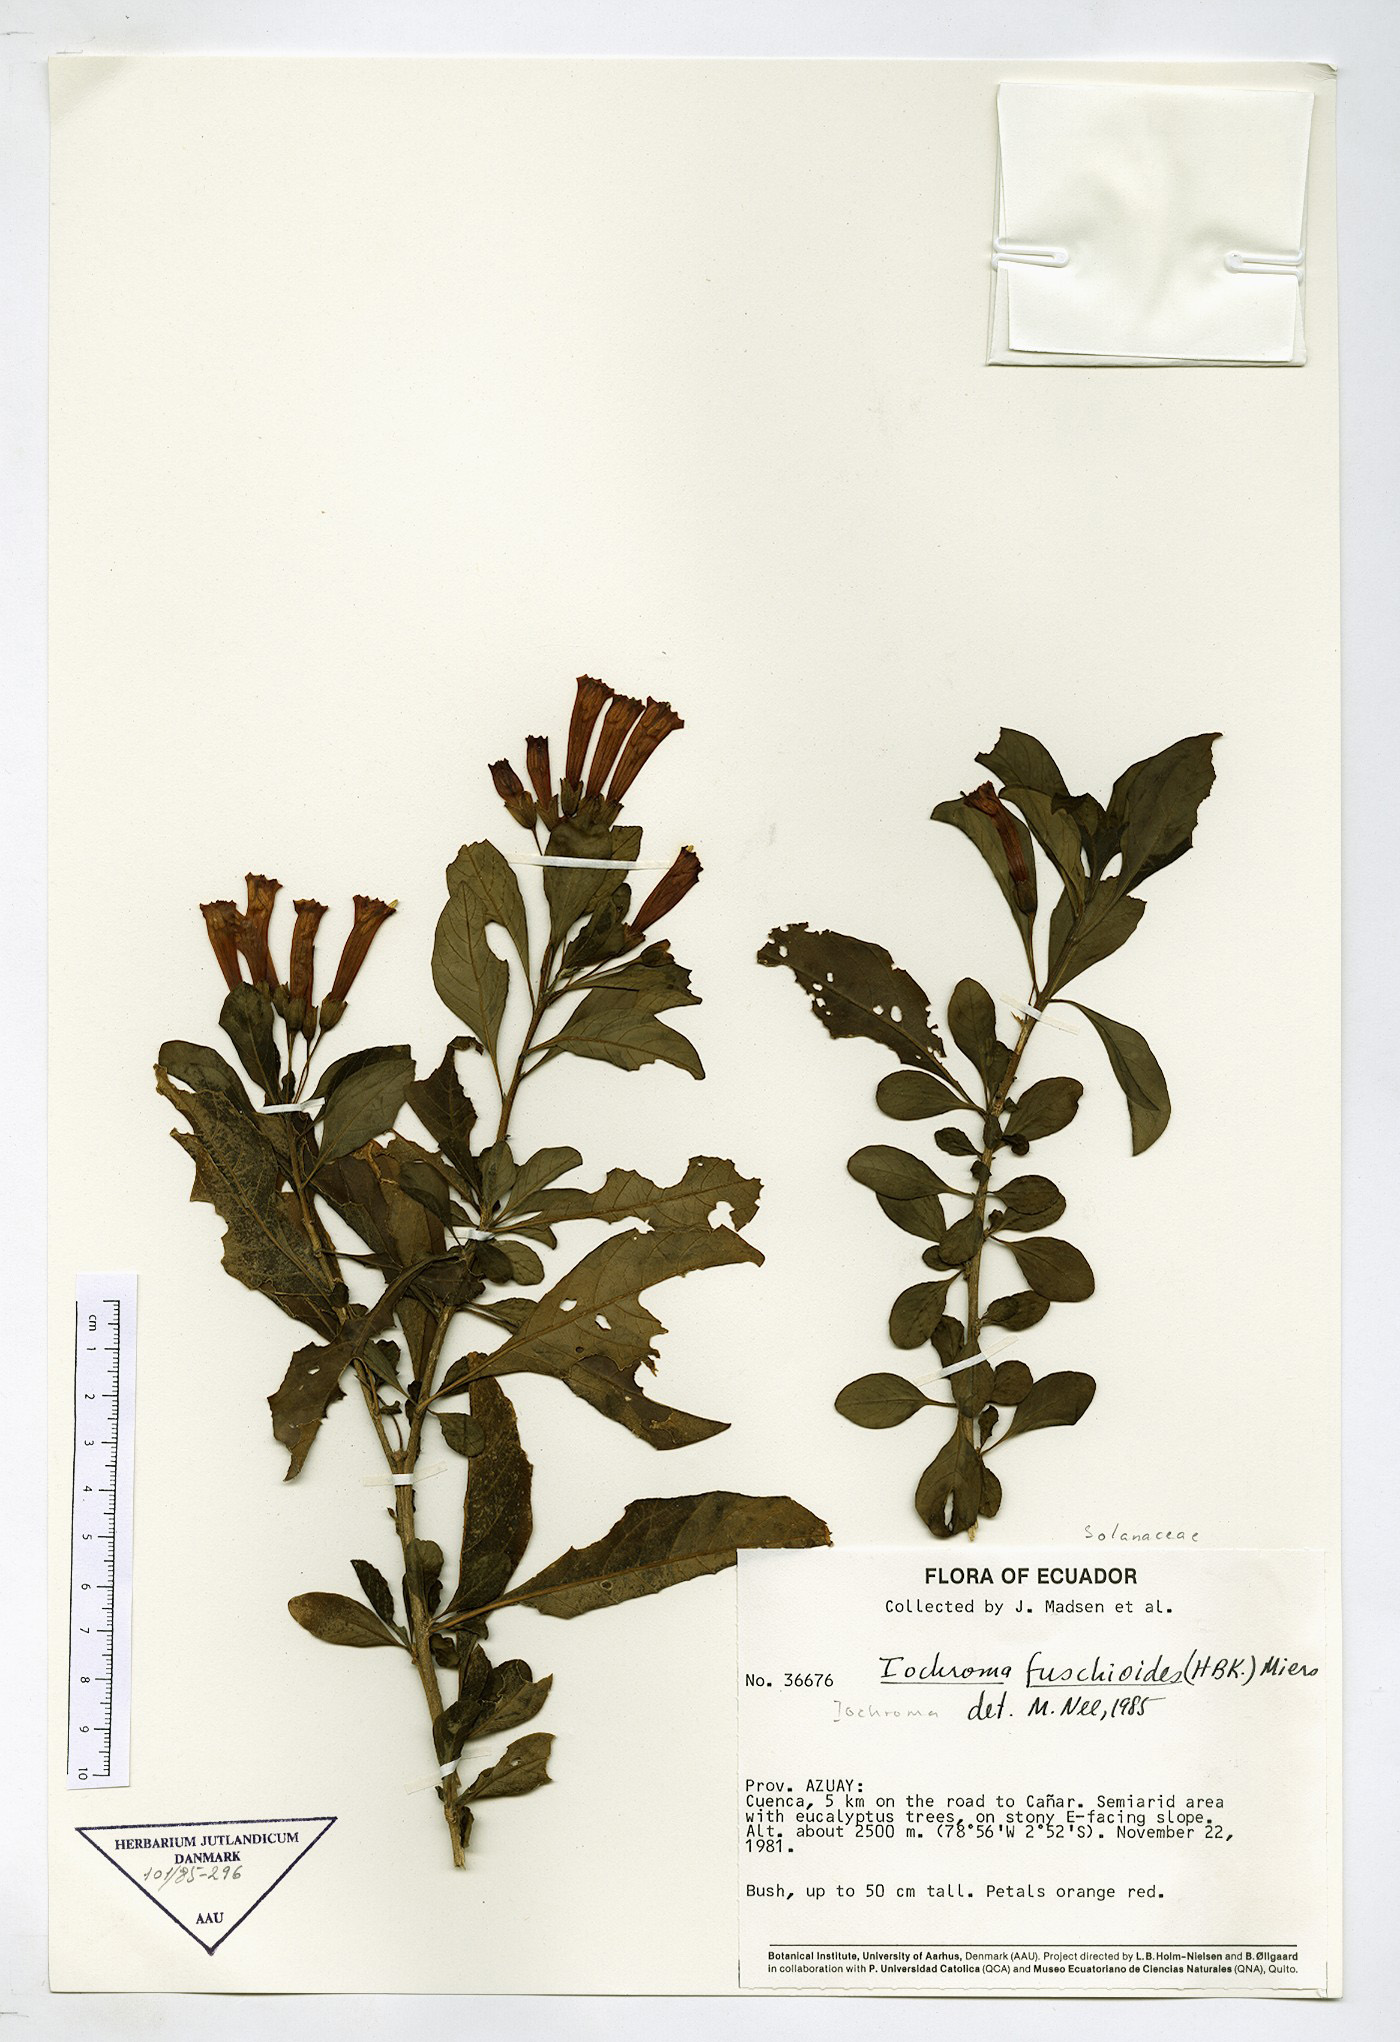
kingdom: Plantae
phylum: Tracheophyta
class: Magnoliopsida
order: Solanales
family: Solanaceae
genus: Iochroma
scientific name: Iochroma fuchsioides
